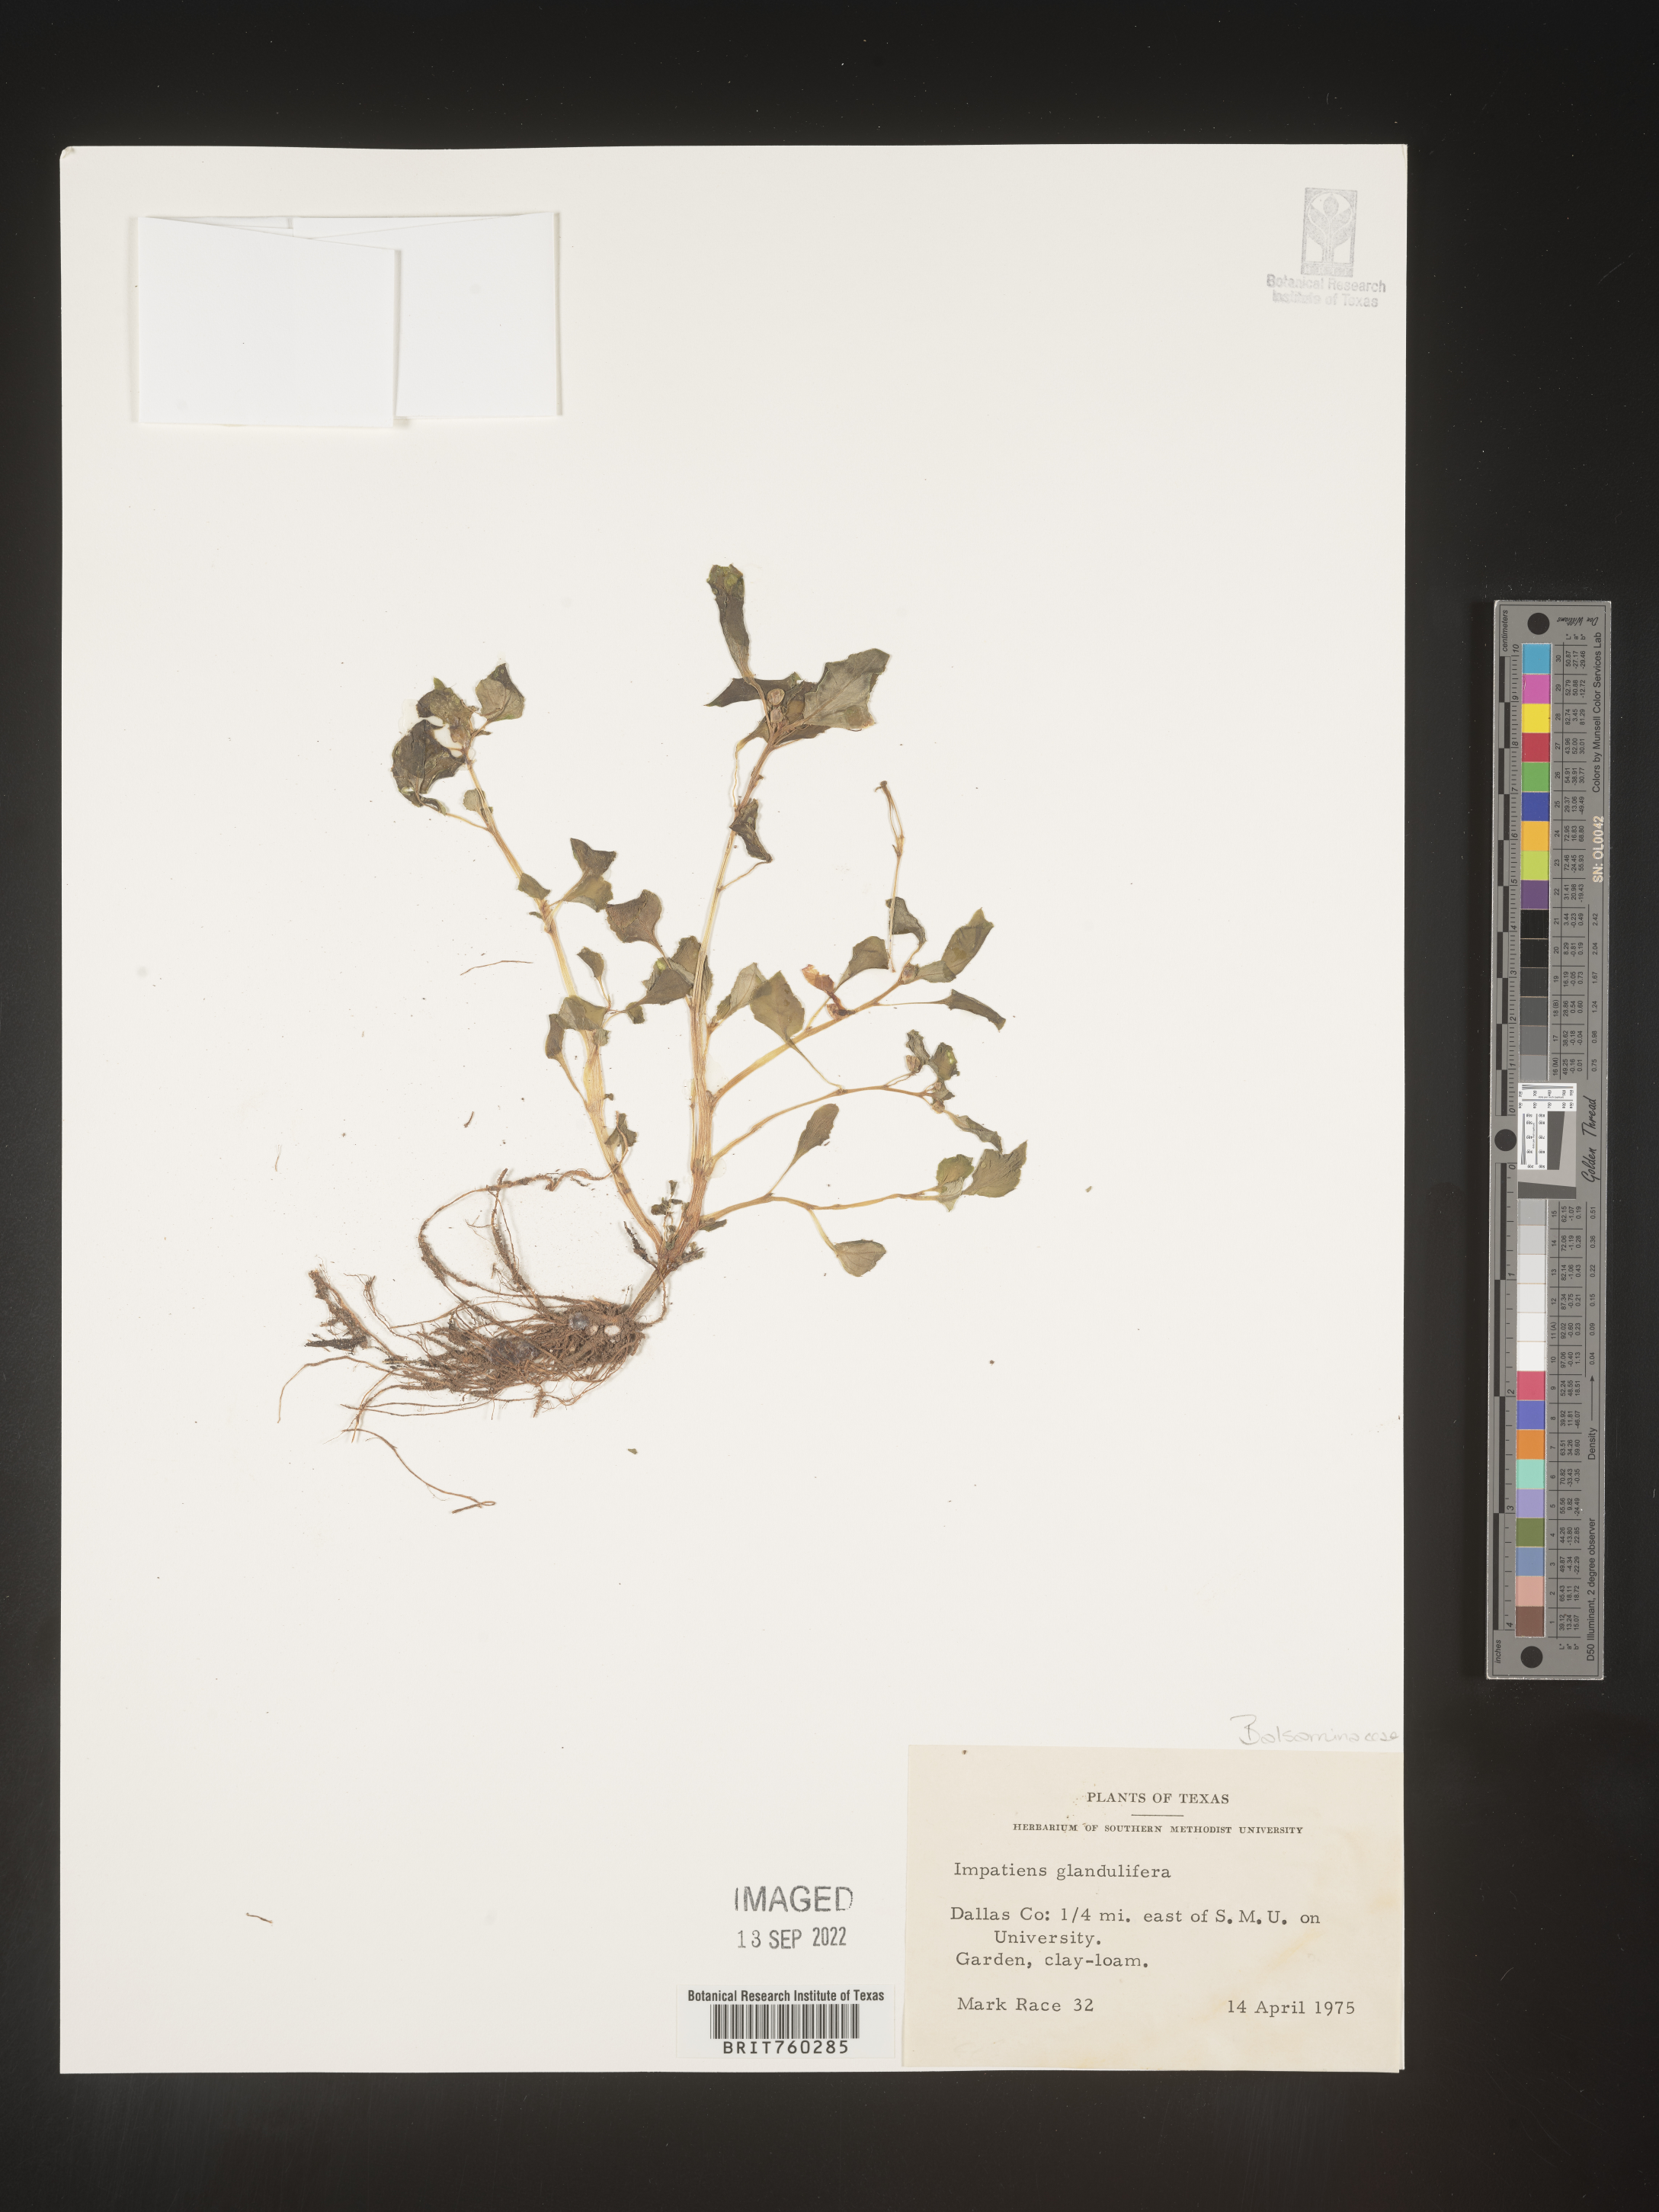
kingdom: Plantae
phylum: Tracheophyta
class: Magnoliopsida
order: Ericales
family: Balsaminaceae
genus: Impatiens
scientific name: Impatiens
